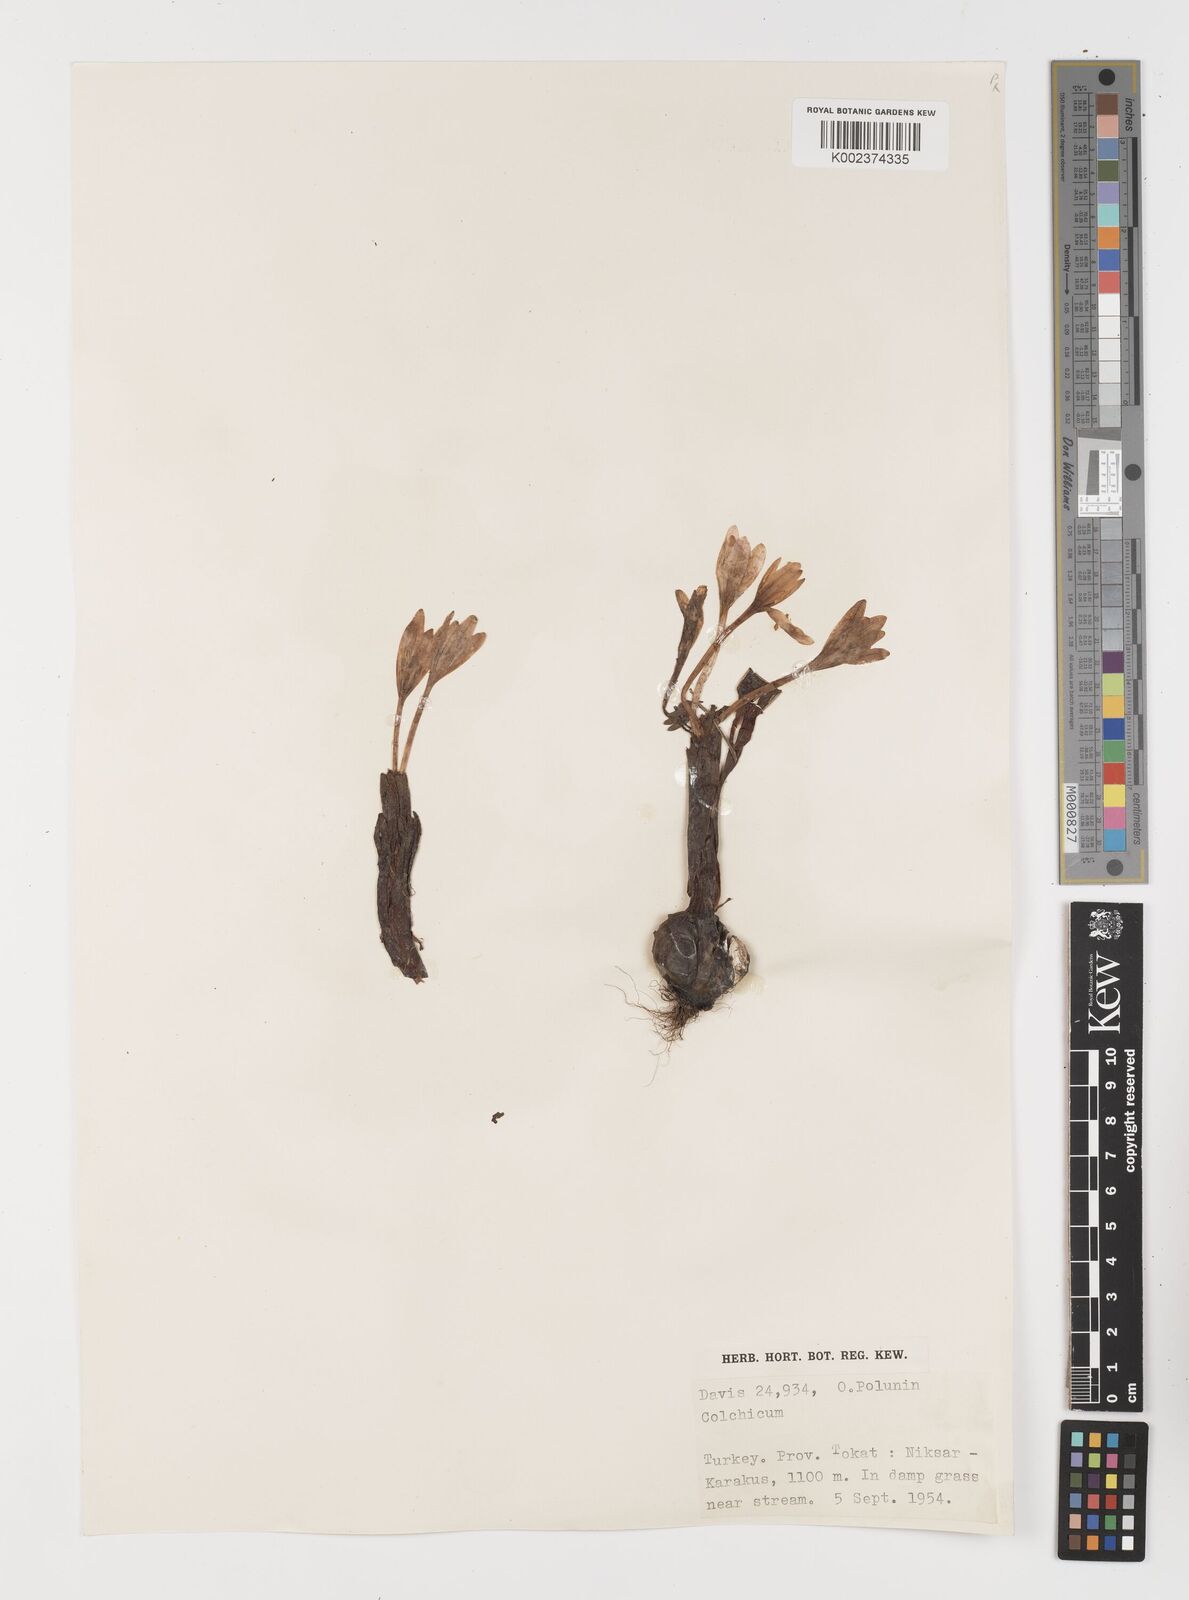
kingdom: Plantae
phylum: Tracheophyta
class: Liliopsida
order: Liliales
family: Colchicaceae
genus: Colchicum
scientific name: Colchicum
